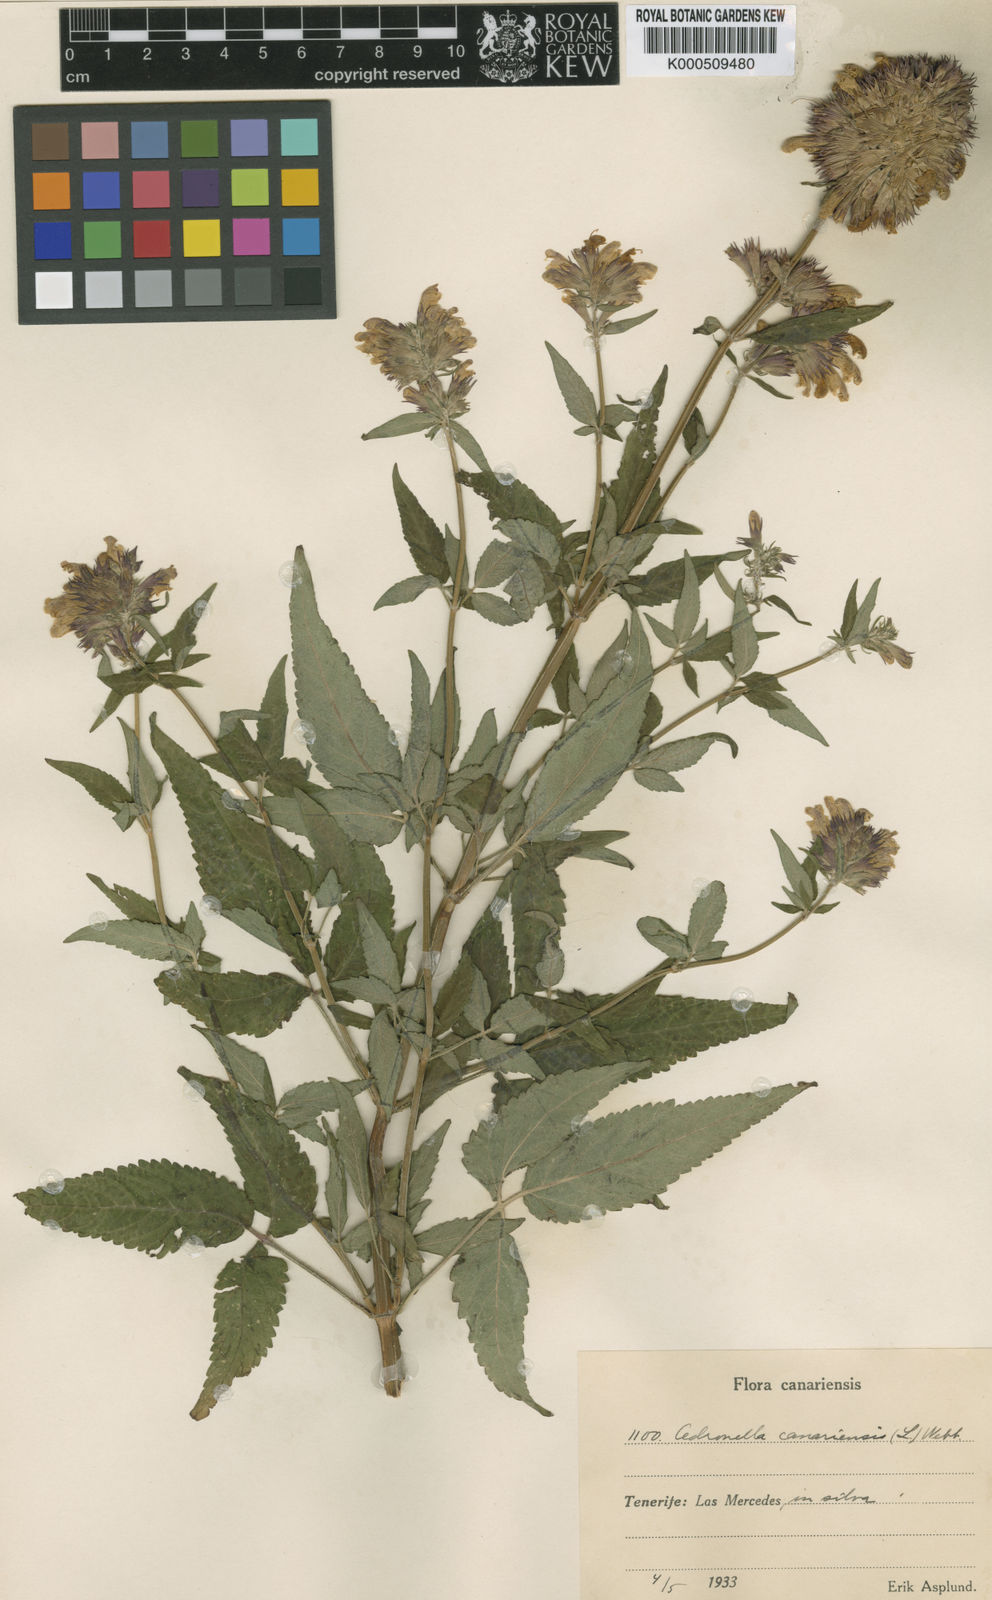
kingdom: Plantae
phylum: Tracheophyta
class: Magnoliopsida
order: Lamiales
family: Lamiaceae
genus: Cedronella
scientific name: Cedronella canariensis
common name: Canary islands balm
